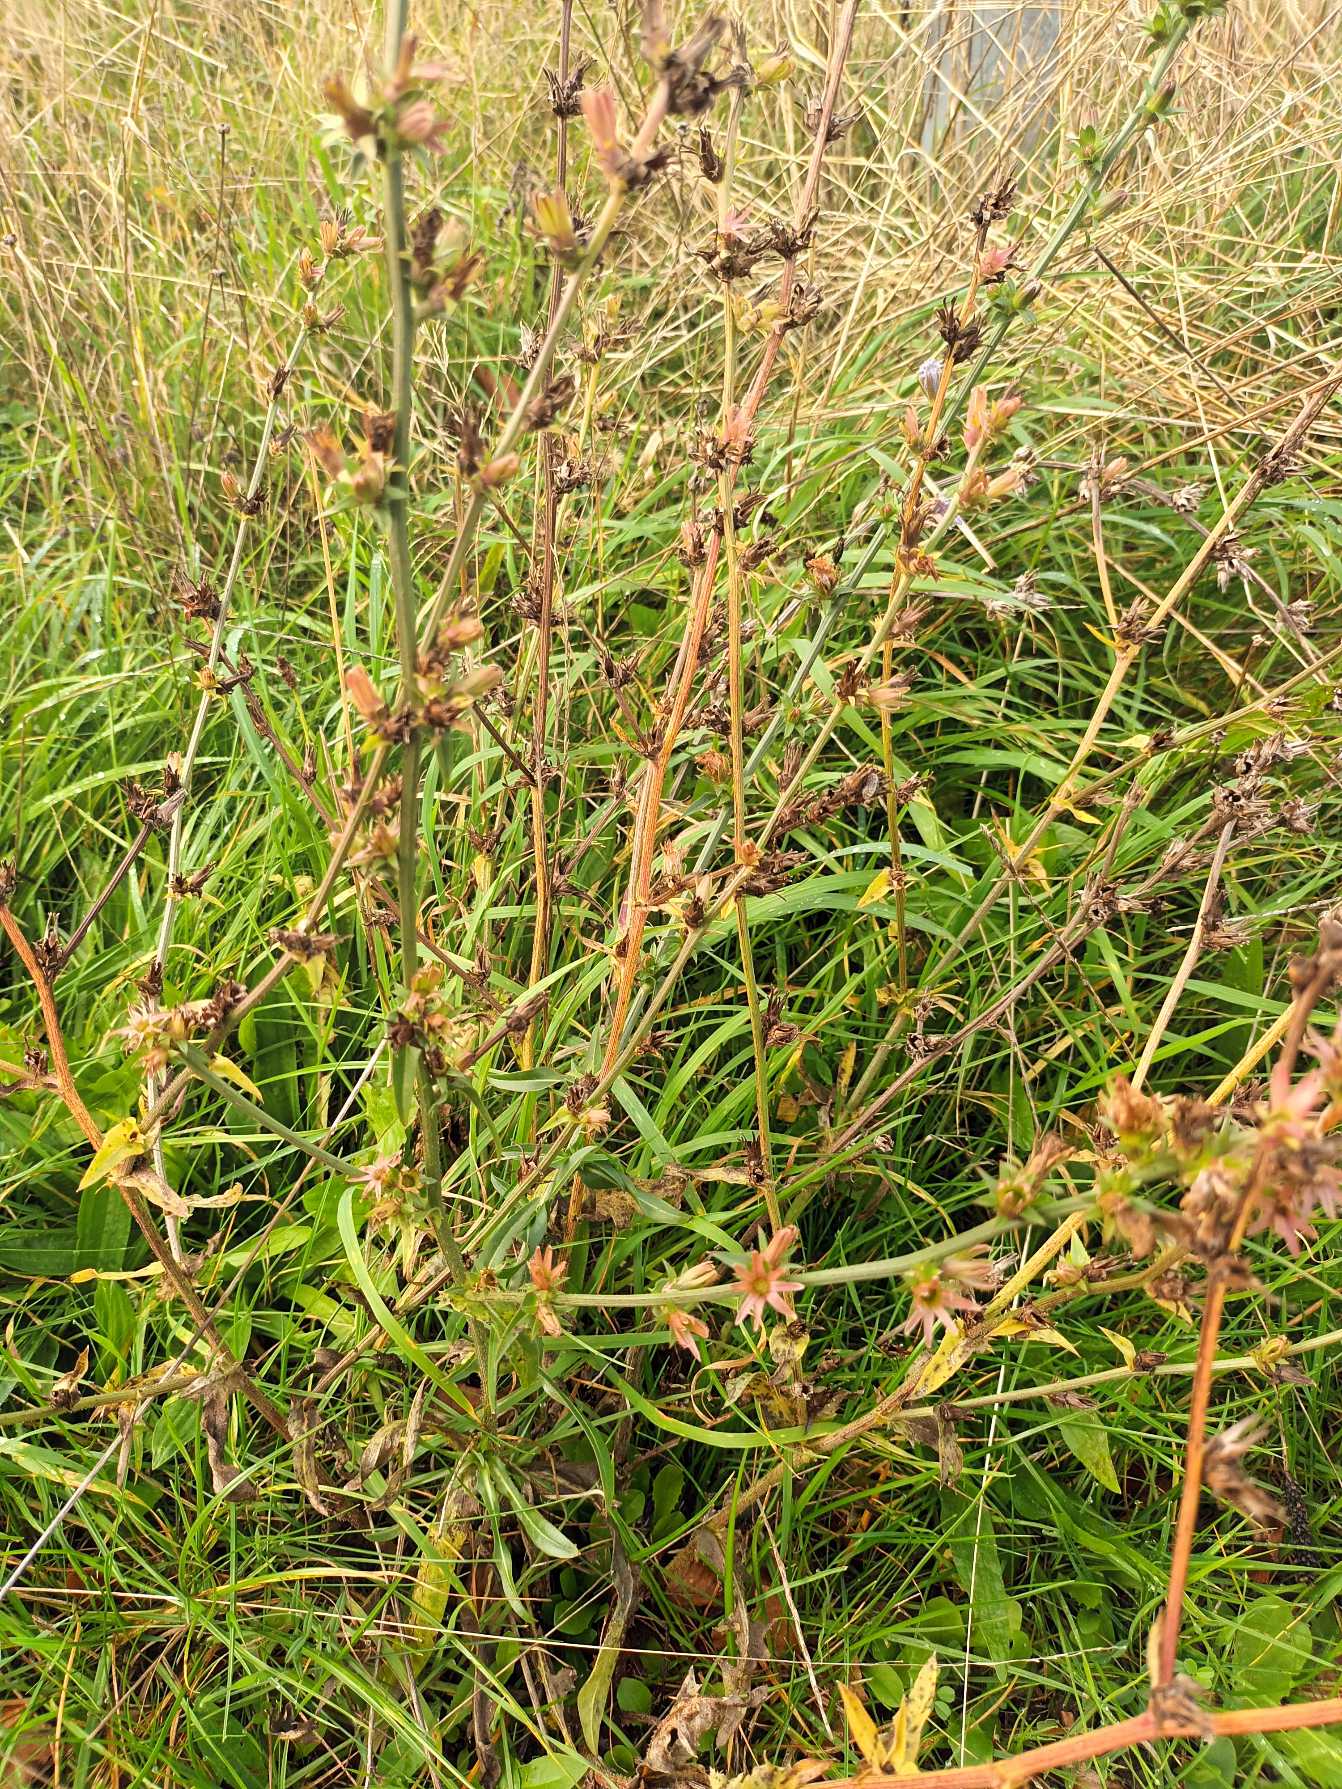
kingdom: Plantae
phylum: Tracheophyta
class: Magnoliopsida
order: Asterales
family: Asteraceae
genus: Cichorium
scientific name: Cichorium intybus
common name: Cikorie
